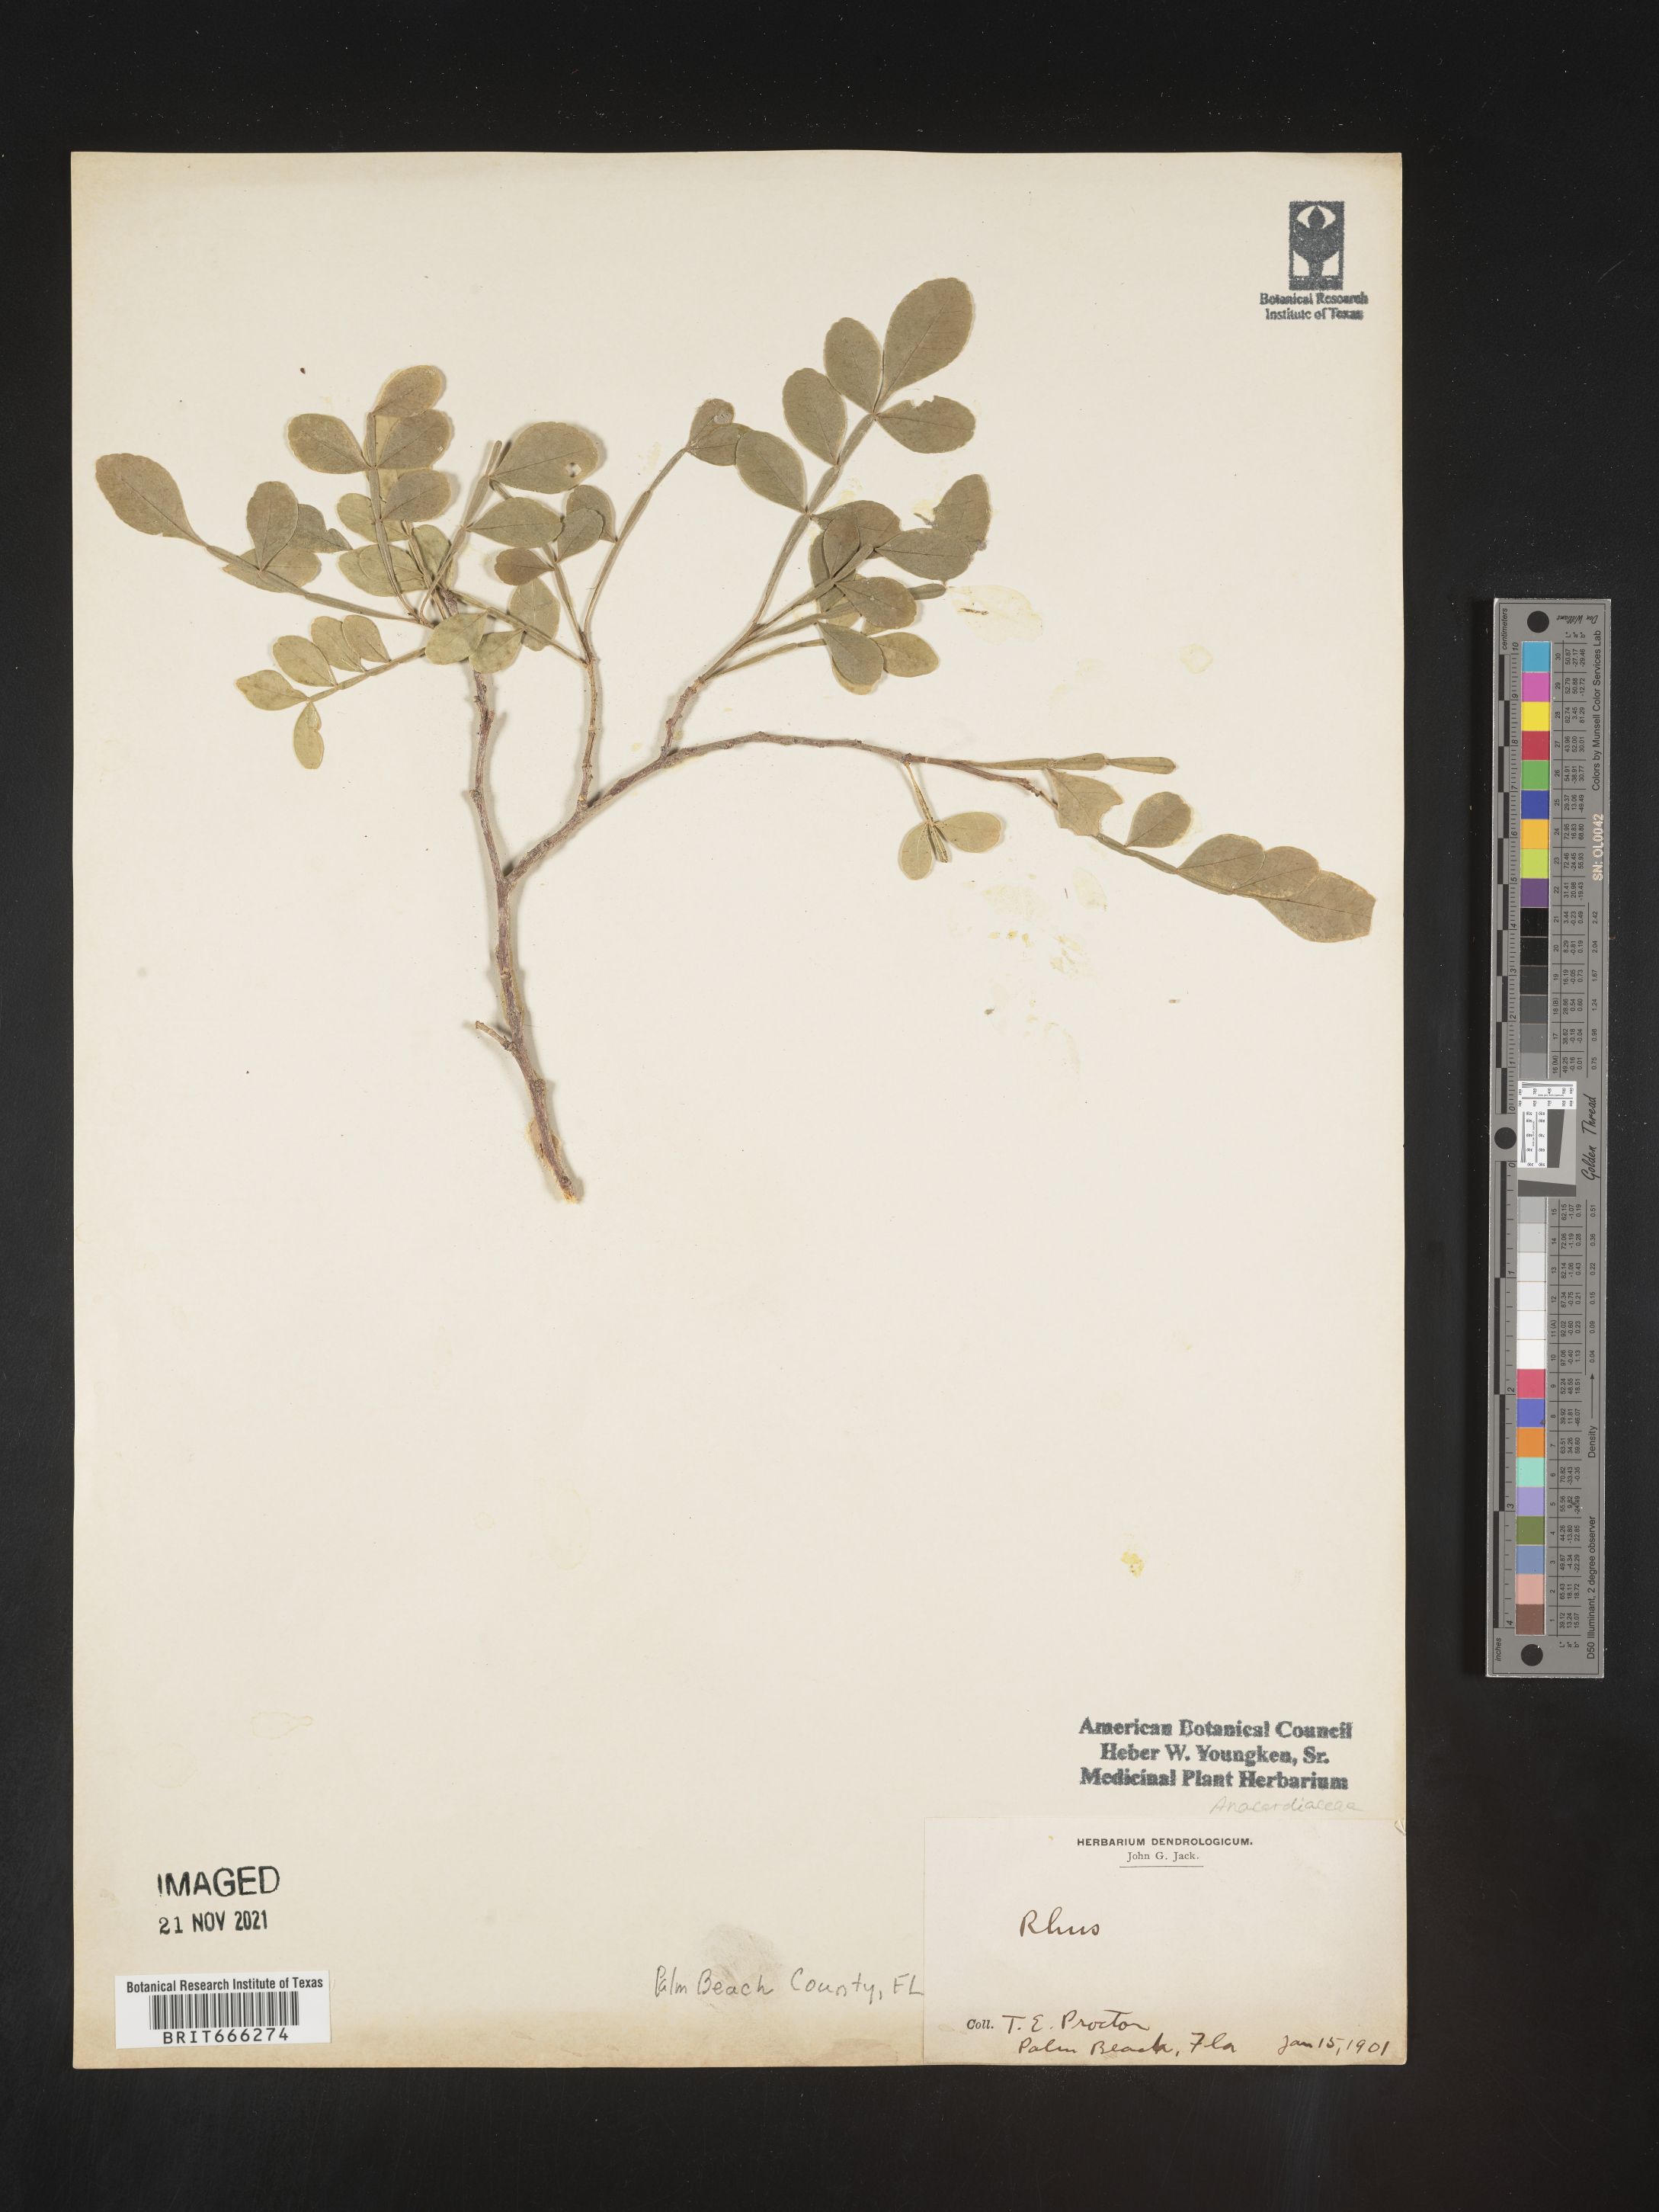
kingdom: Plantae
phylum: Tracheophyta
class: Magnoliopsida
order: Sapindales
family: Anacardiaceae
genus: Rhus
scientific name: Rhus
